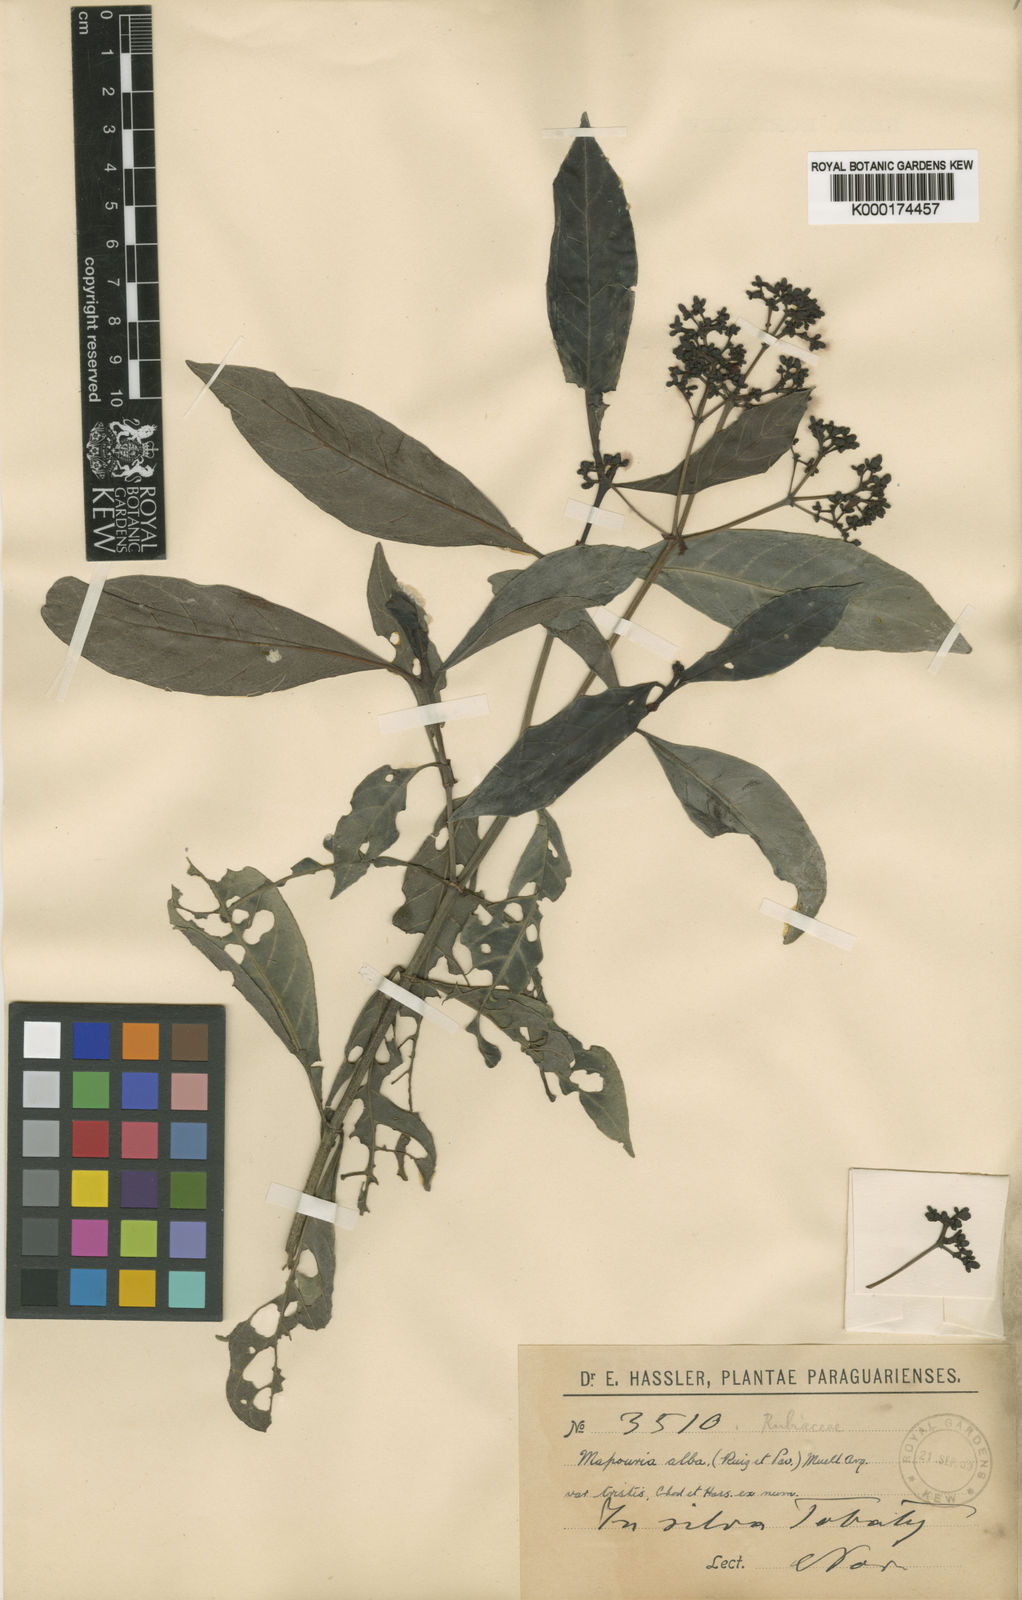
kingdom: Plantae
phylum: Tracheophyta
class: Magnoliopsida
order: Gentianales
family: Rubiaceae
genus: Psychotria
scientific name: Psychotria carthagenensis
